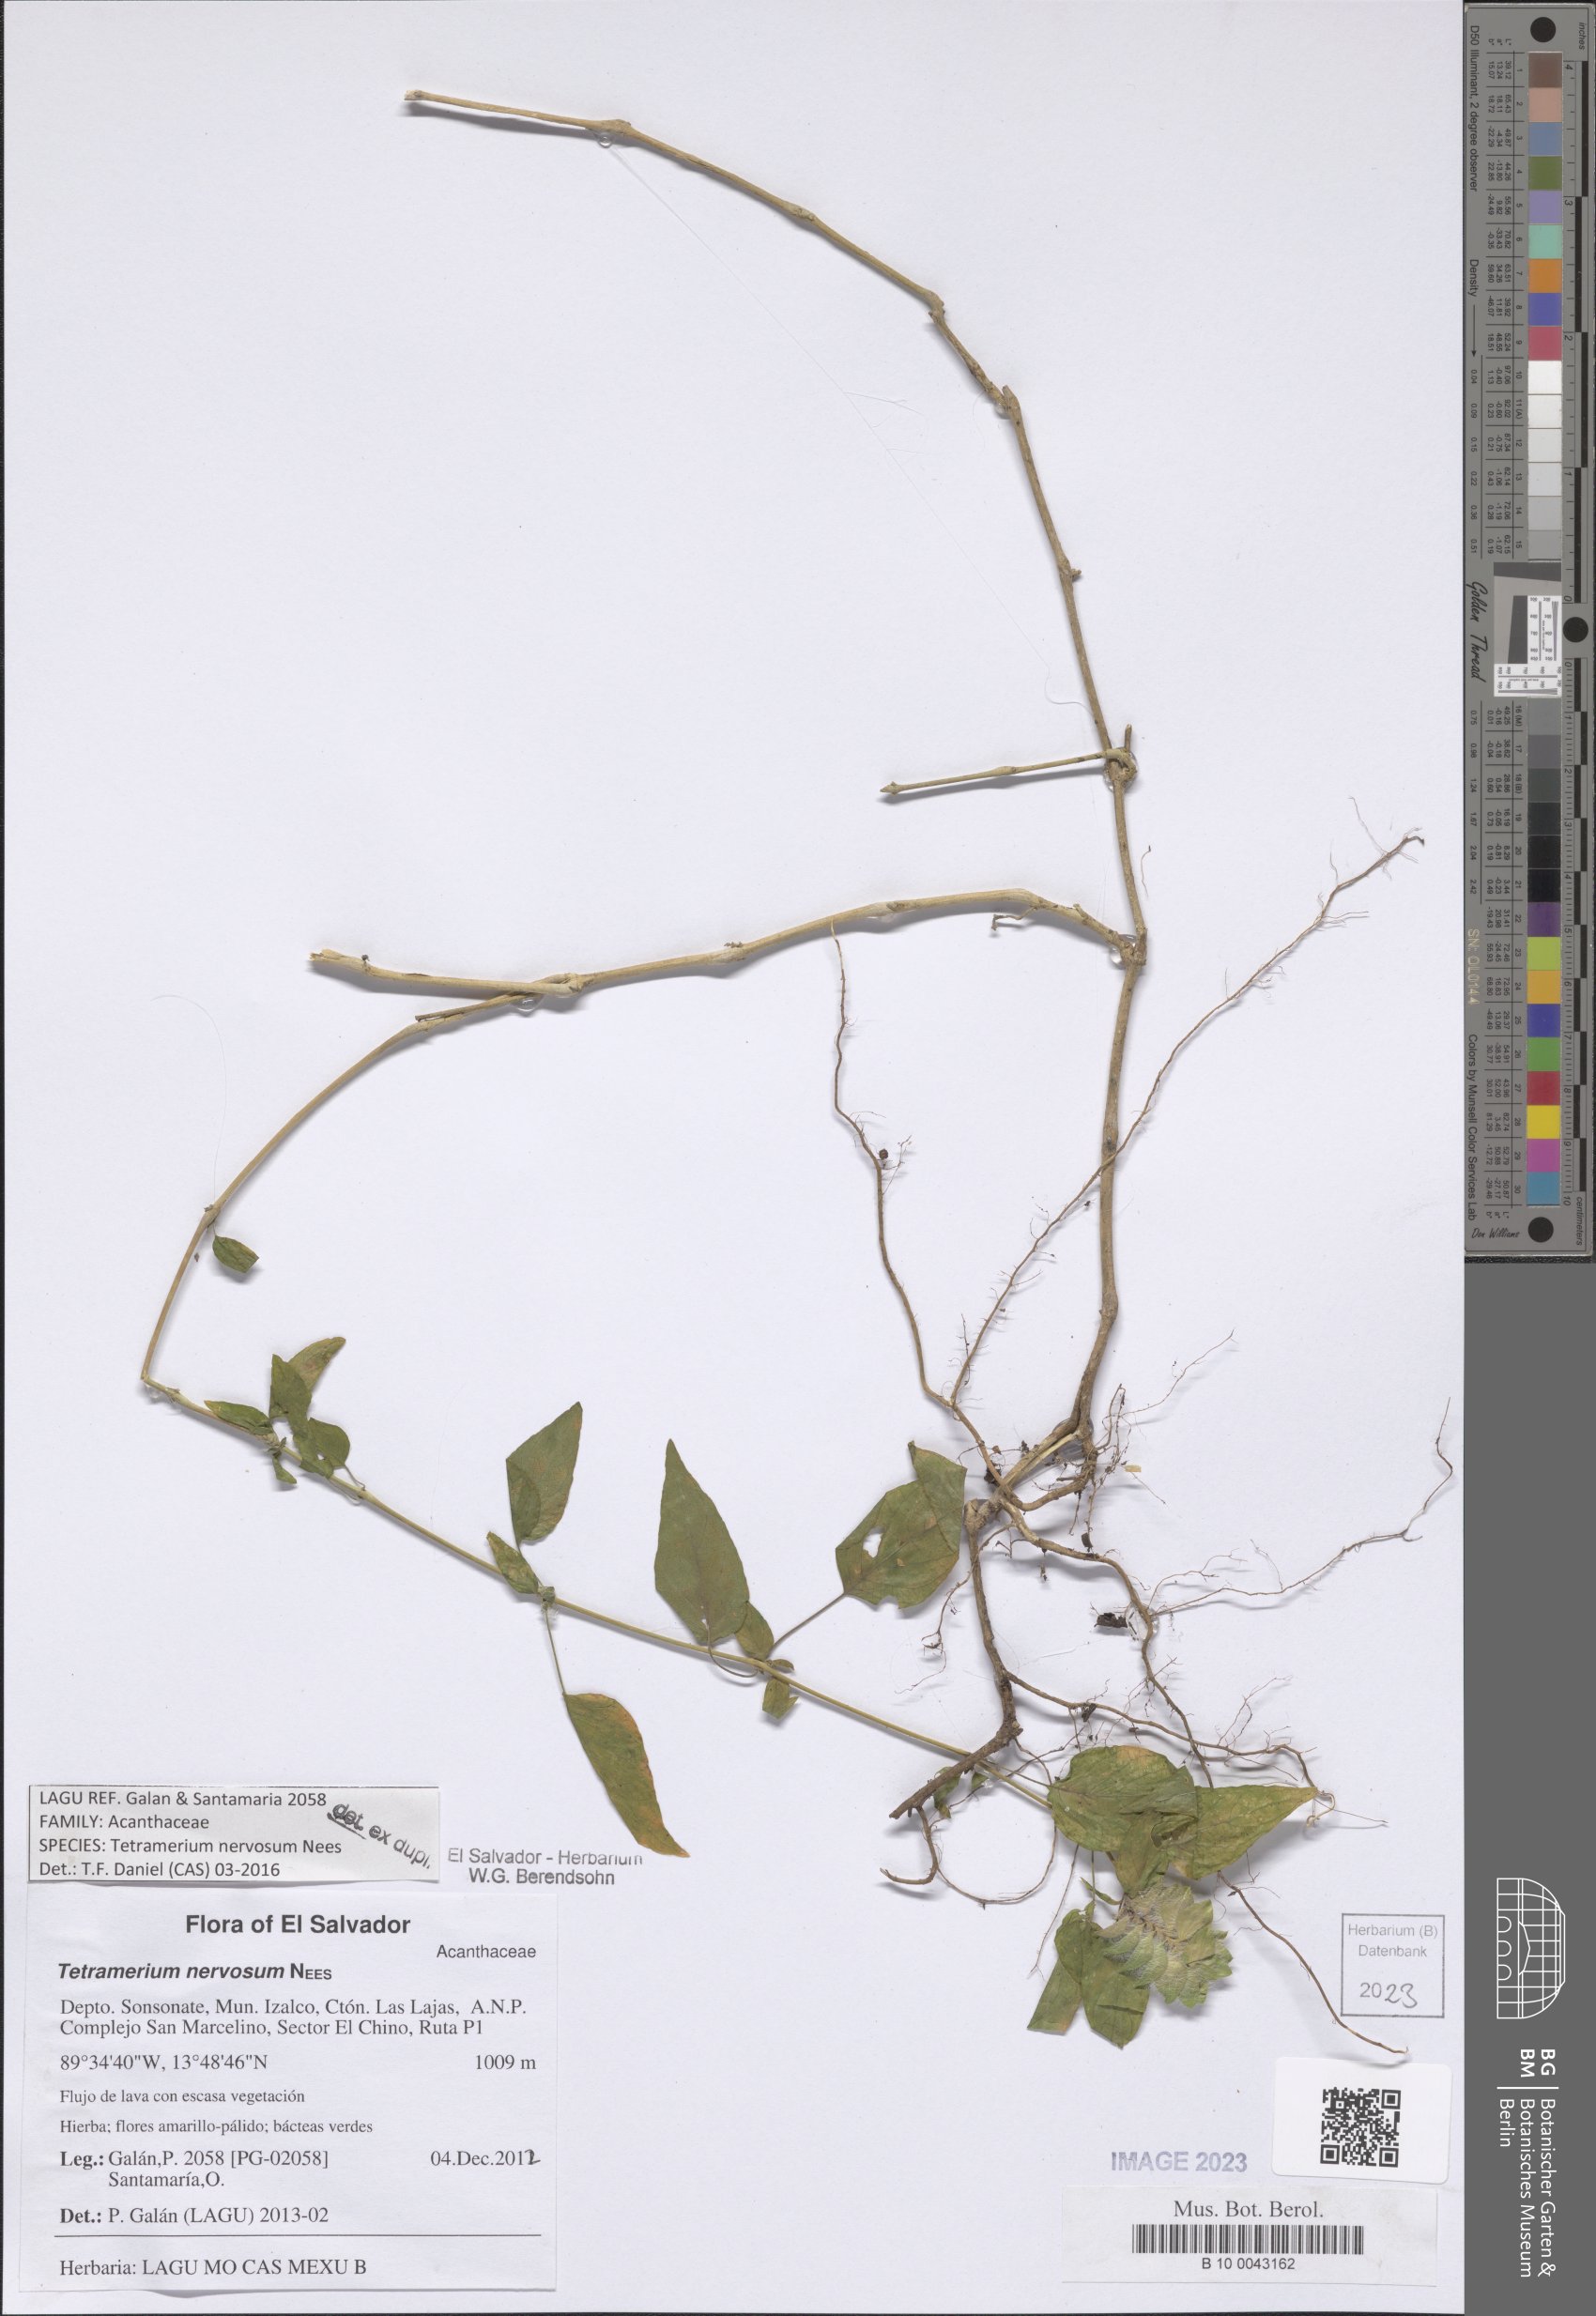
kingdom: Plantae
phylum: Tracheophyta
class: Magnoliopsida
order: Lamiales
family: Acanthaceae
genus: Tetramerium
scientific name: Tetramerium nervosum
